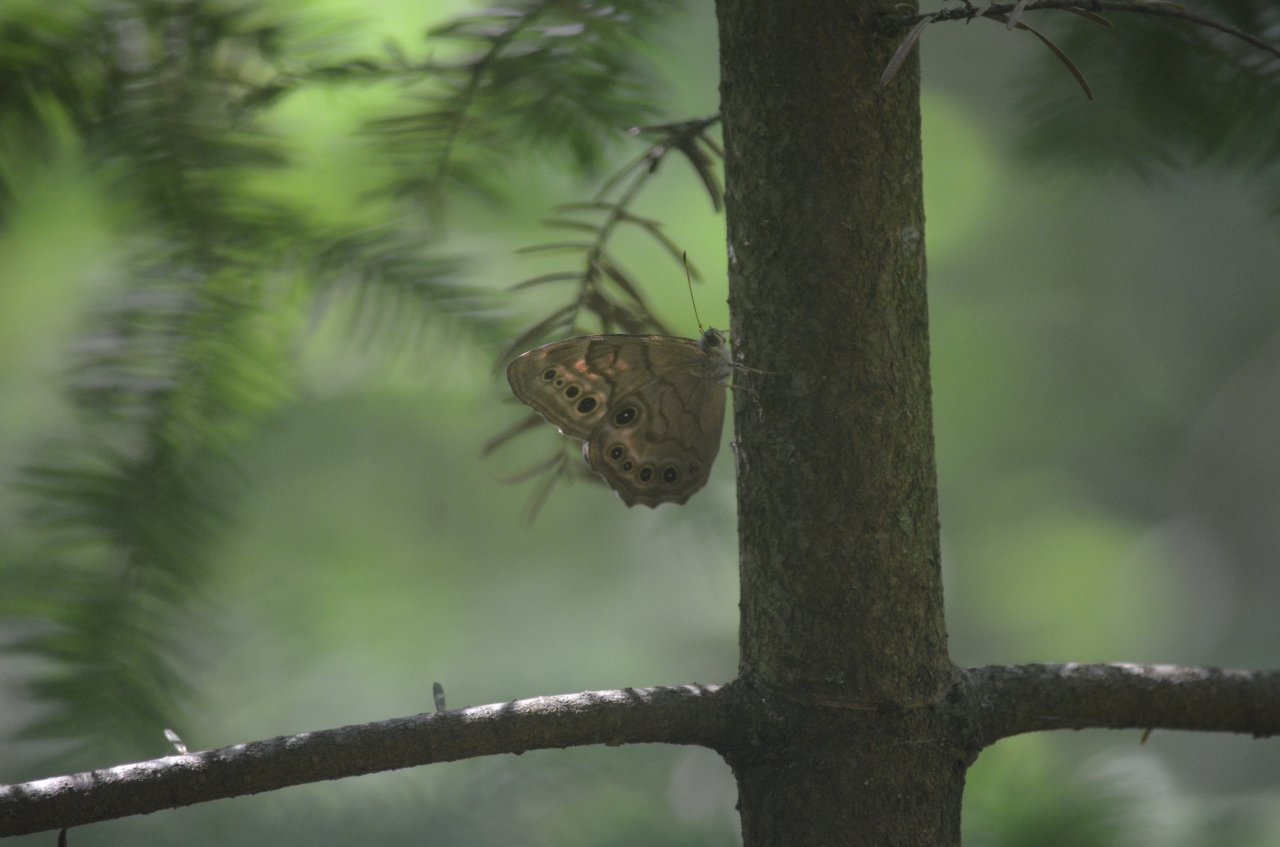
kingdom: Animalia
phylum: Arthropoda
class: Insecta
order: Lepidoptera
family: Nymphalidae
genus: Lethe
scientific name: Lethe anthedon
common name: Northern Pearly-Eye
